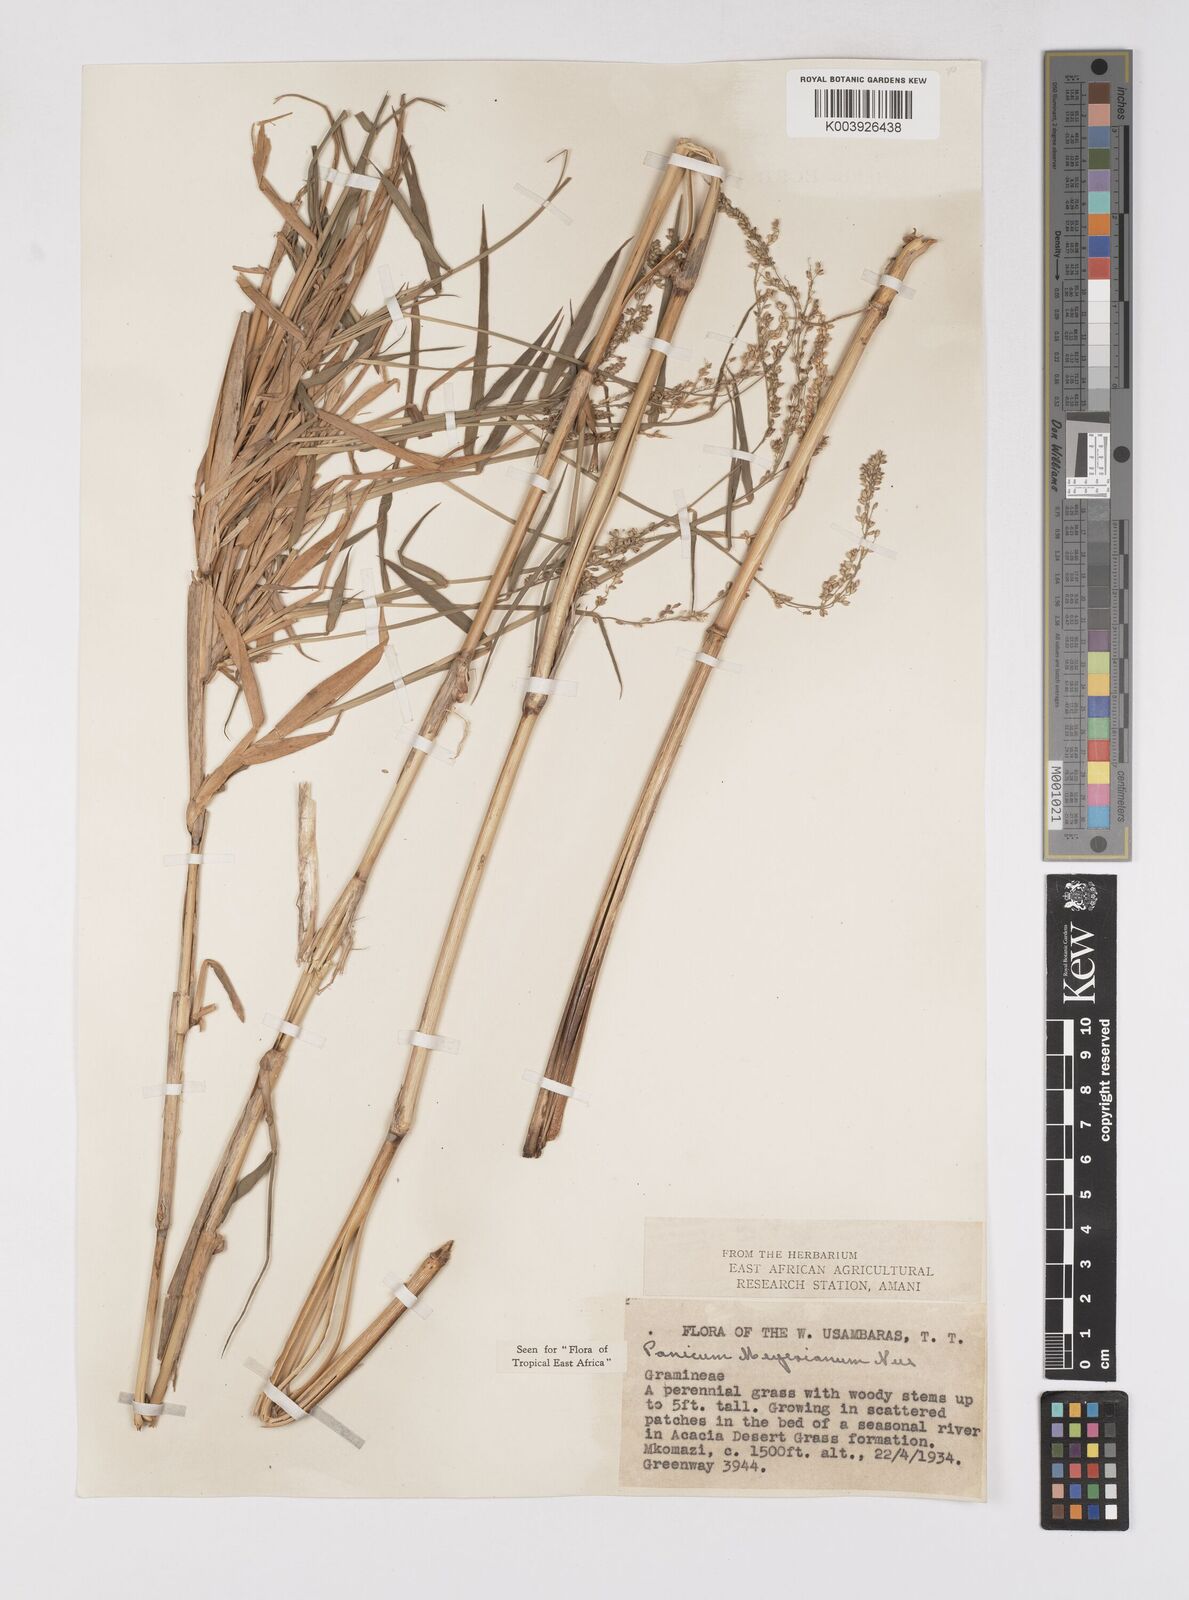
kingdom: Plantae
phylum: Tracheophyta
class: Liliopsida
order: Poales
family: Poaceae
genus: Eriochloa
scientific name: Eriochloa meyeriana
